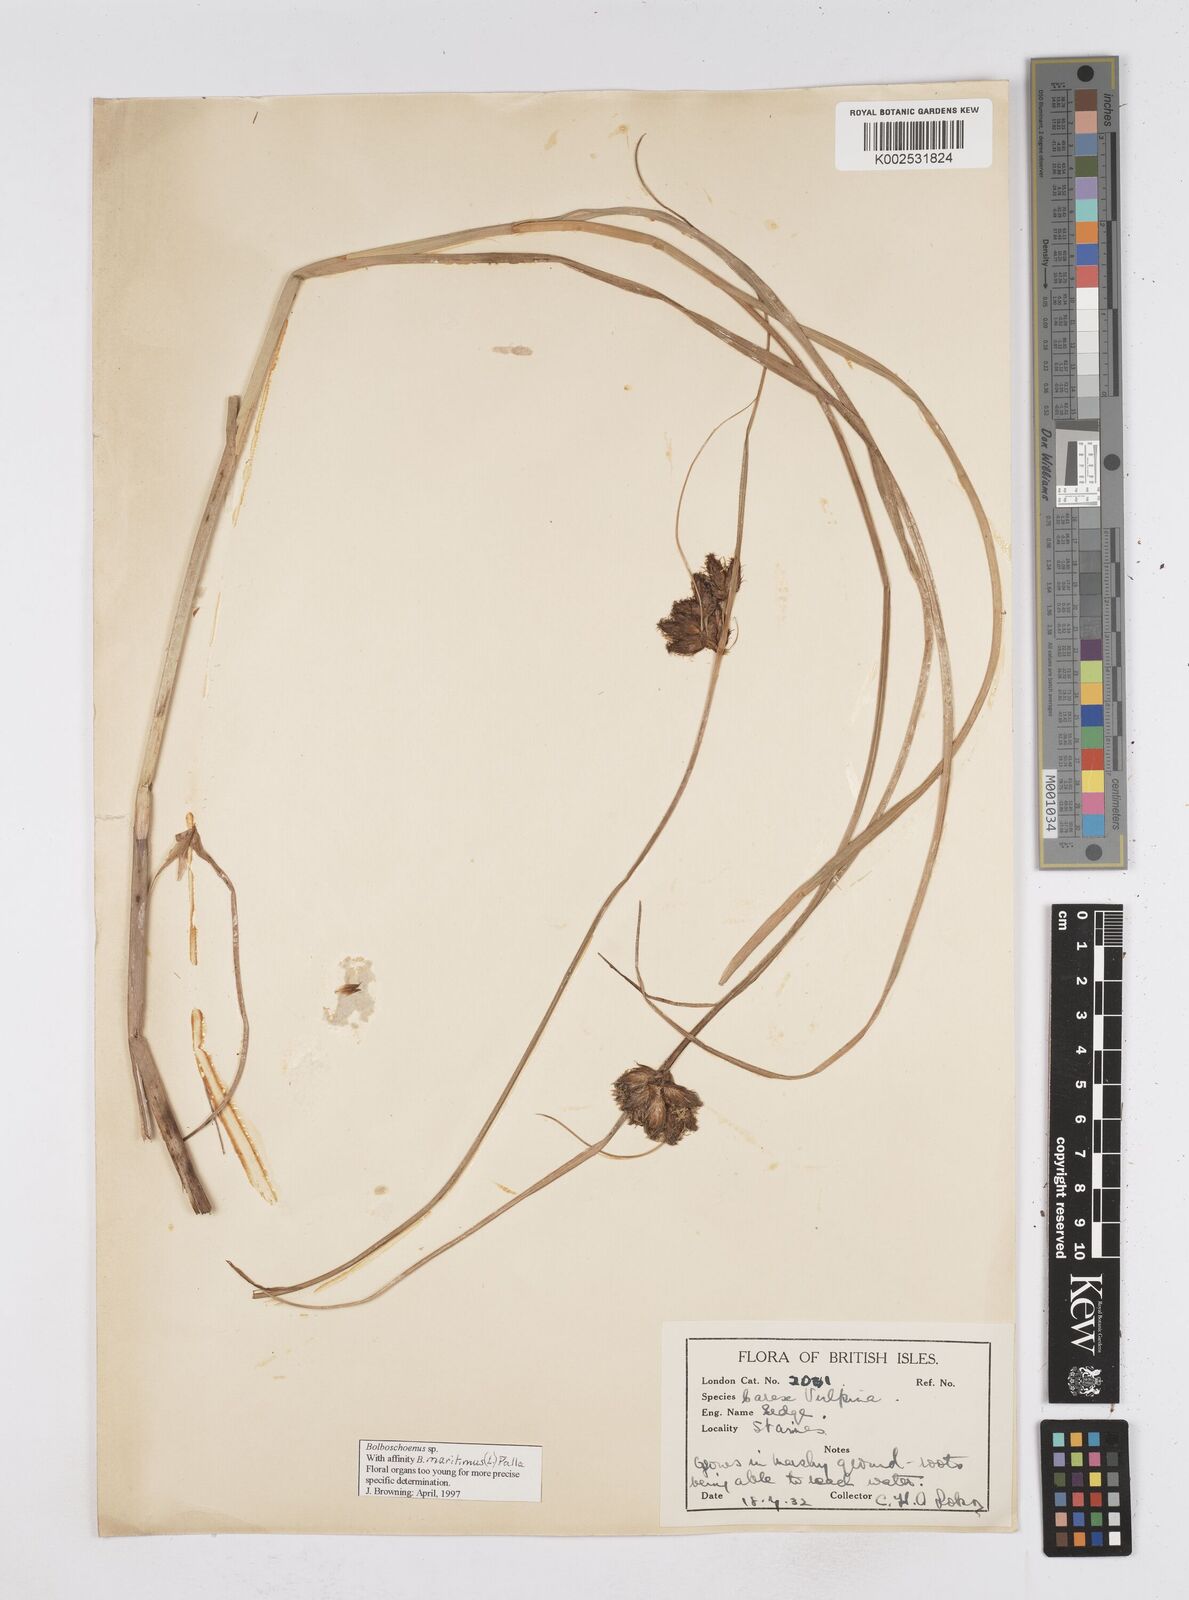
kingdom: Plantae
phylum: Tracheophyta
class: Liliopsida
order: Poales
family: Cyperaceae
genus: Bolboschoenus
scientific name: Bolboschoenus maritimus
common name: Sea club-rush
